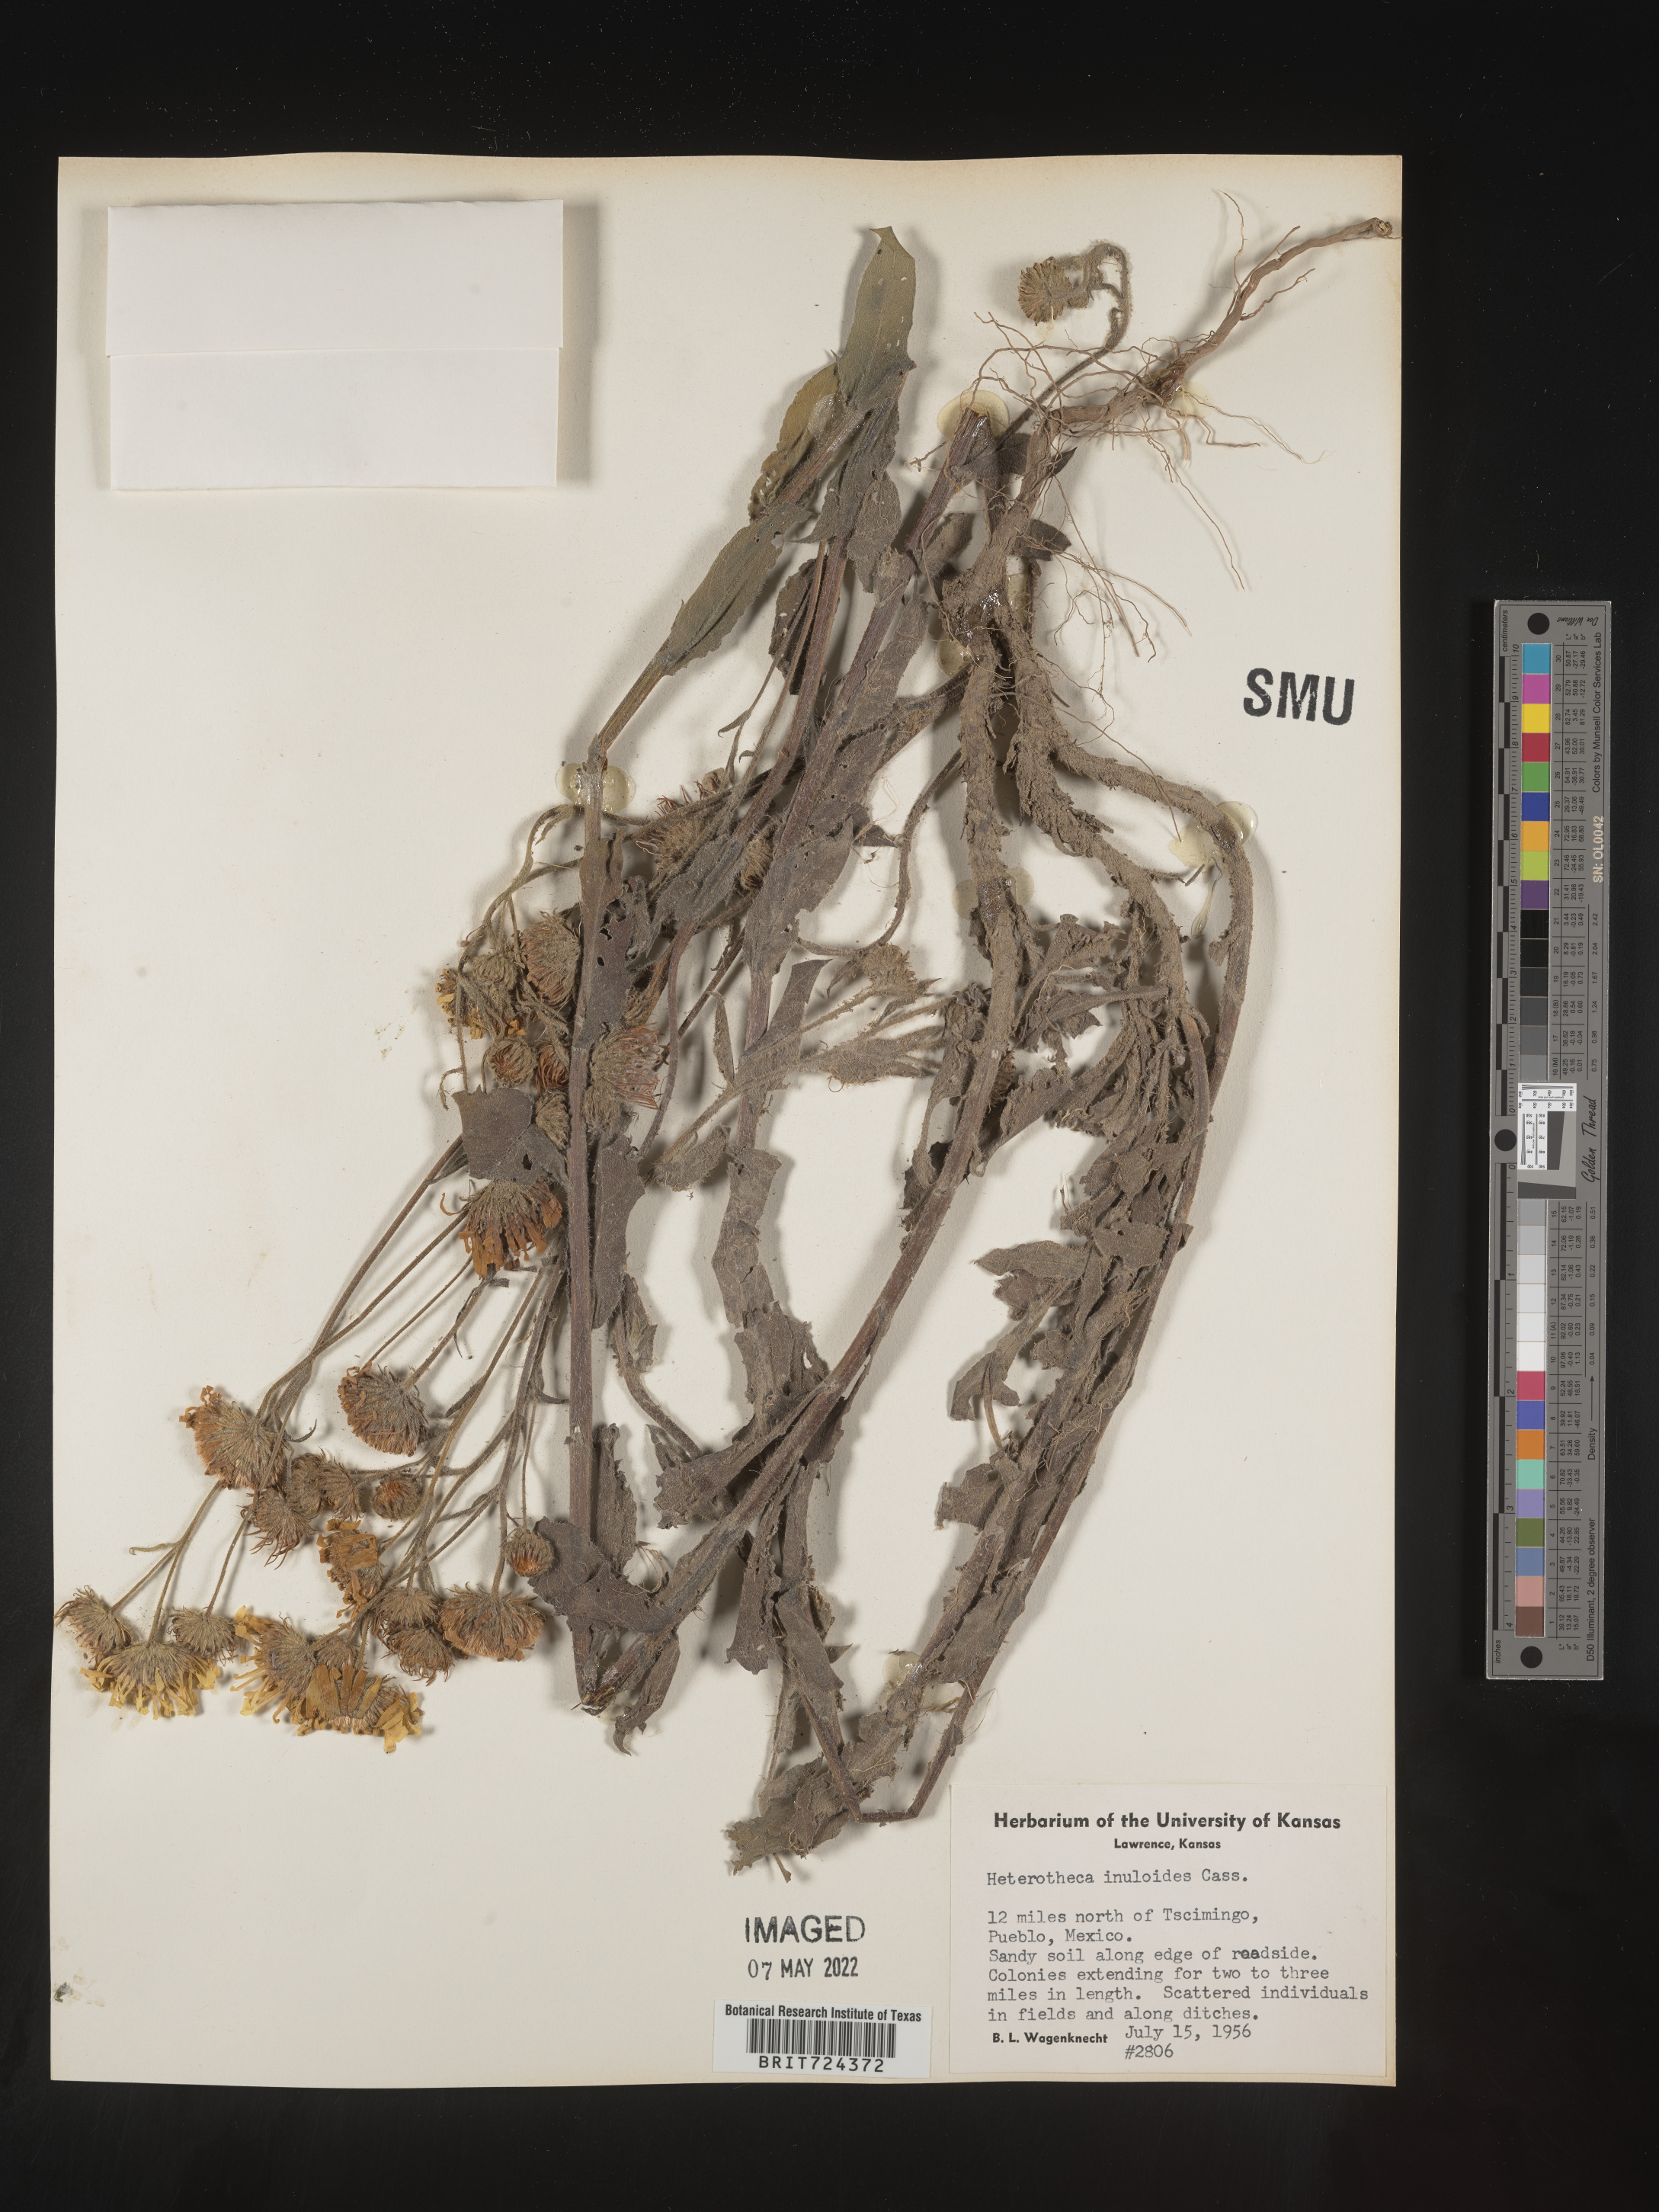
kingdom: Plantae
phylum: Tracheophyta
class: Magnoliopsida
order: Asterales
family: Asteraceae
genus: Heterotheca
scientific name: Heterotheca inuloides
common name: False arnica
